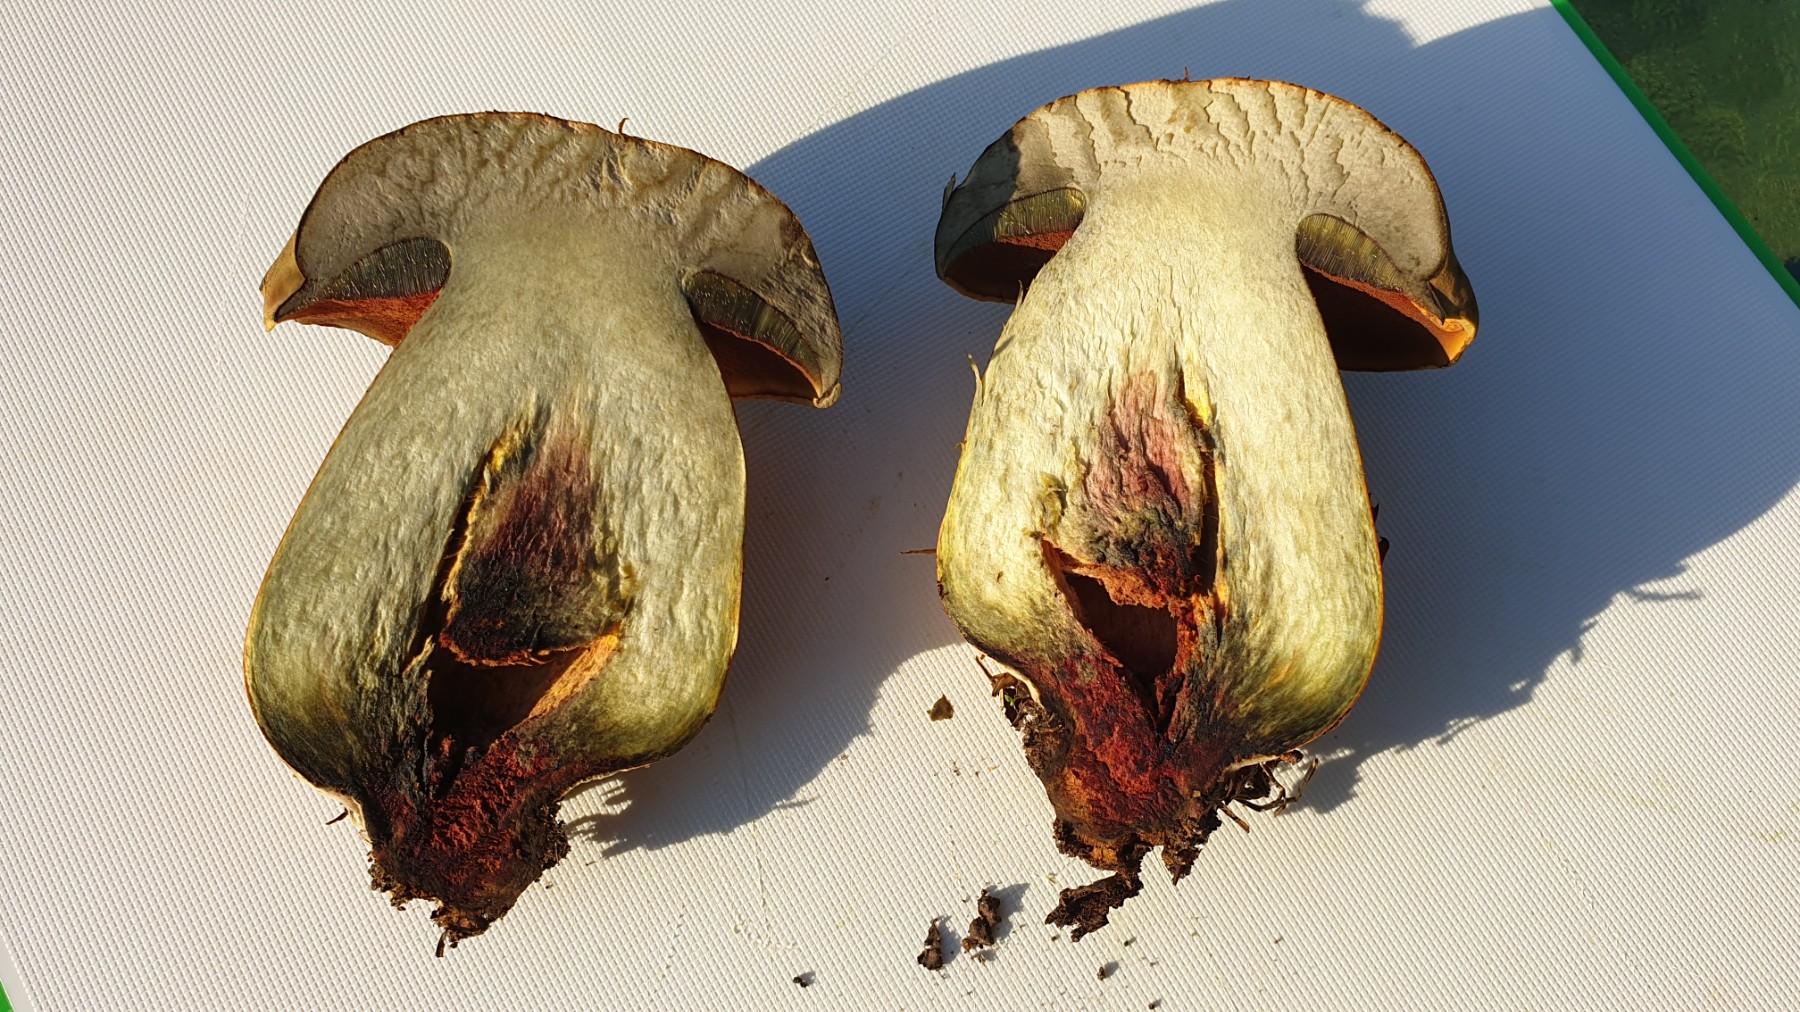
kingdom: Fungi
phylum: Basidiomycota
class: Agaricomycetes
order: Boletales
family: Boletaceae
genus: Suillellus
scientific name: Suillellus luridus
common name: netstokket indigorørhat
